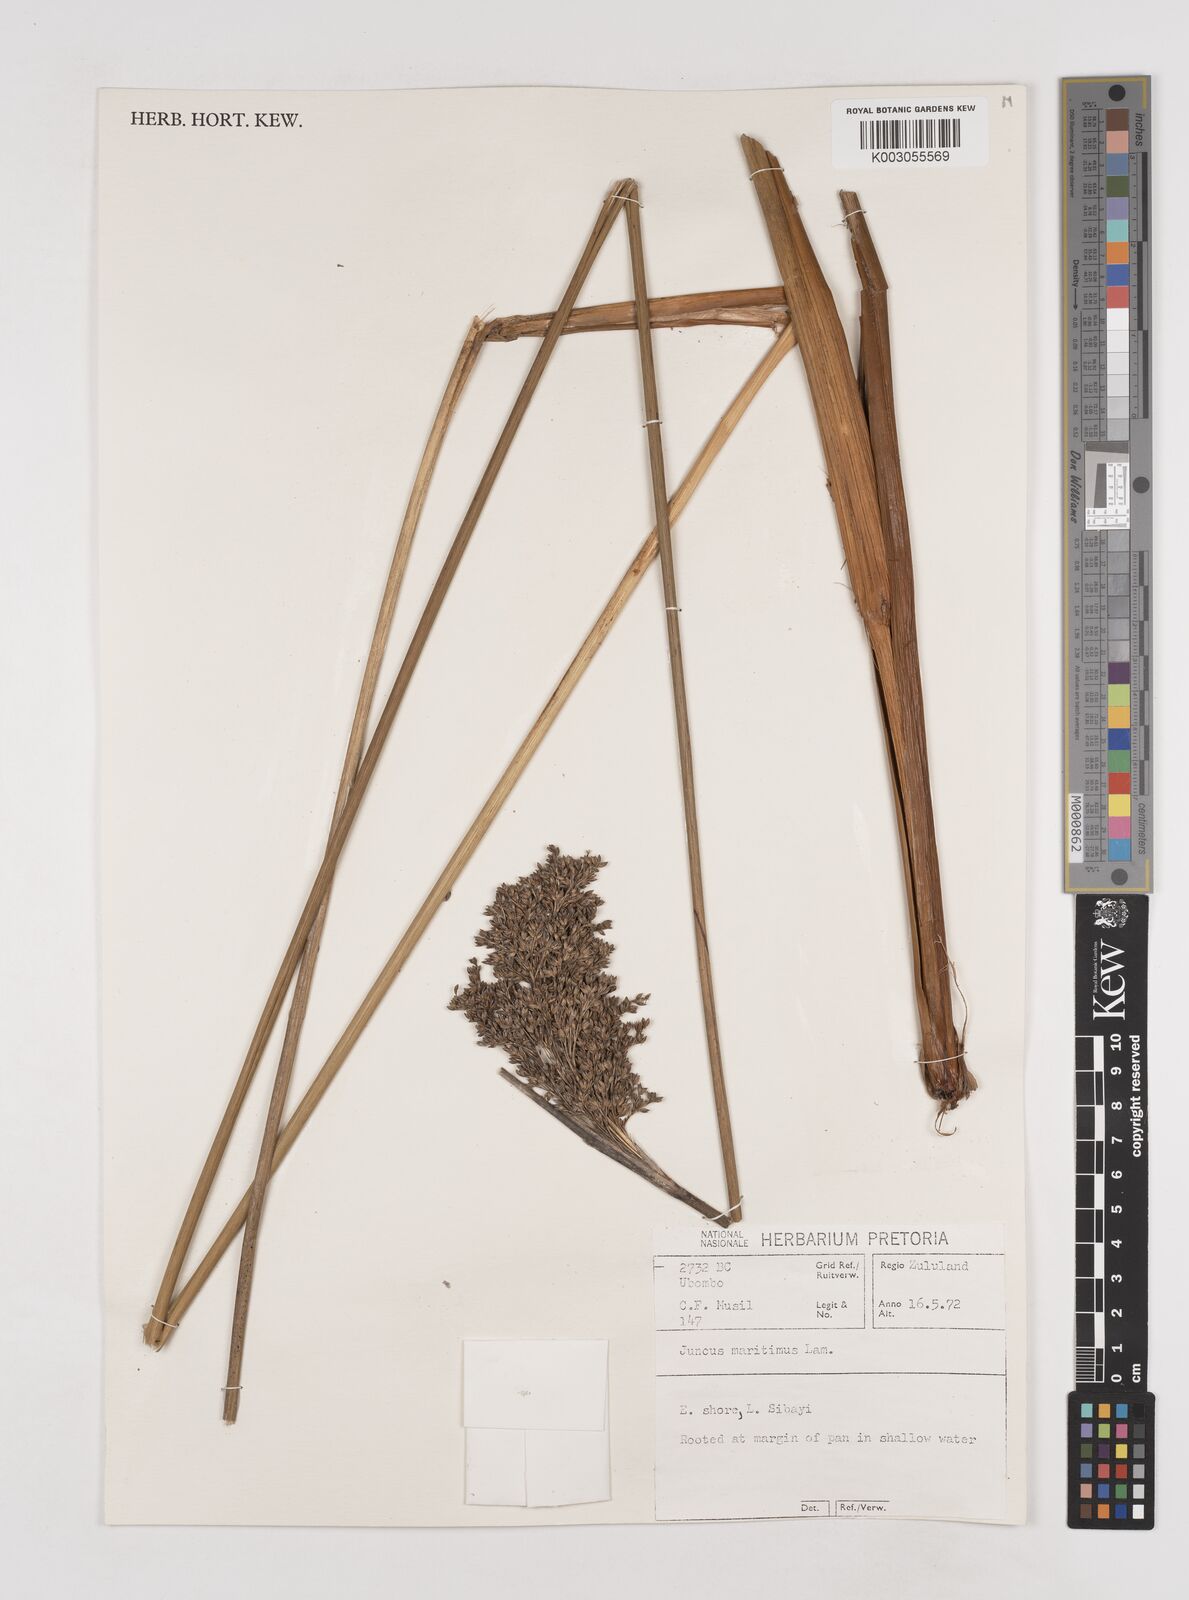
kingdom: Plantae
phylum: Tracheophyta
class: Liliopsida
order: Poales
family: Juncaceae
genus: Juncus
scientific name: Juncus kraussii
